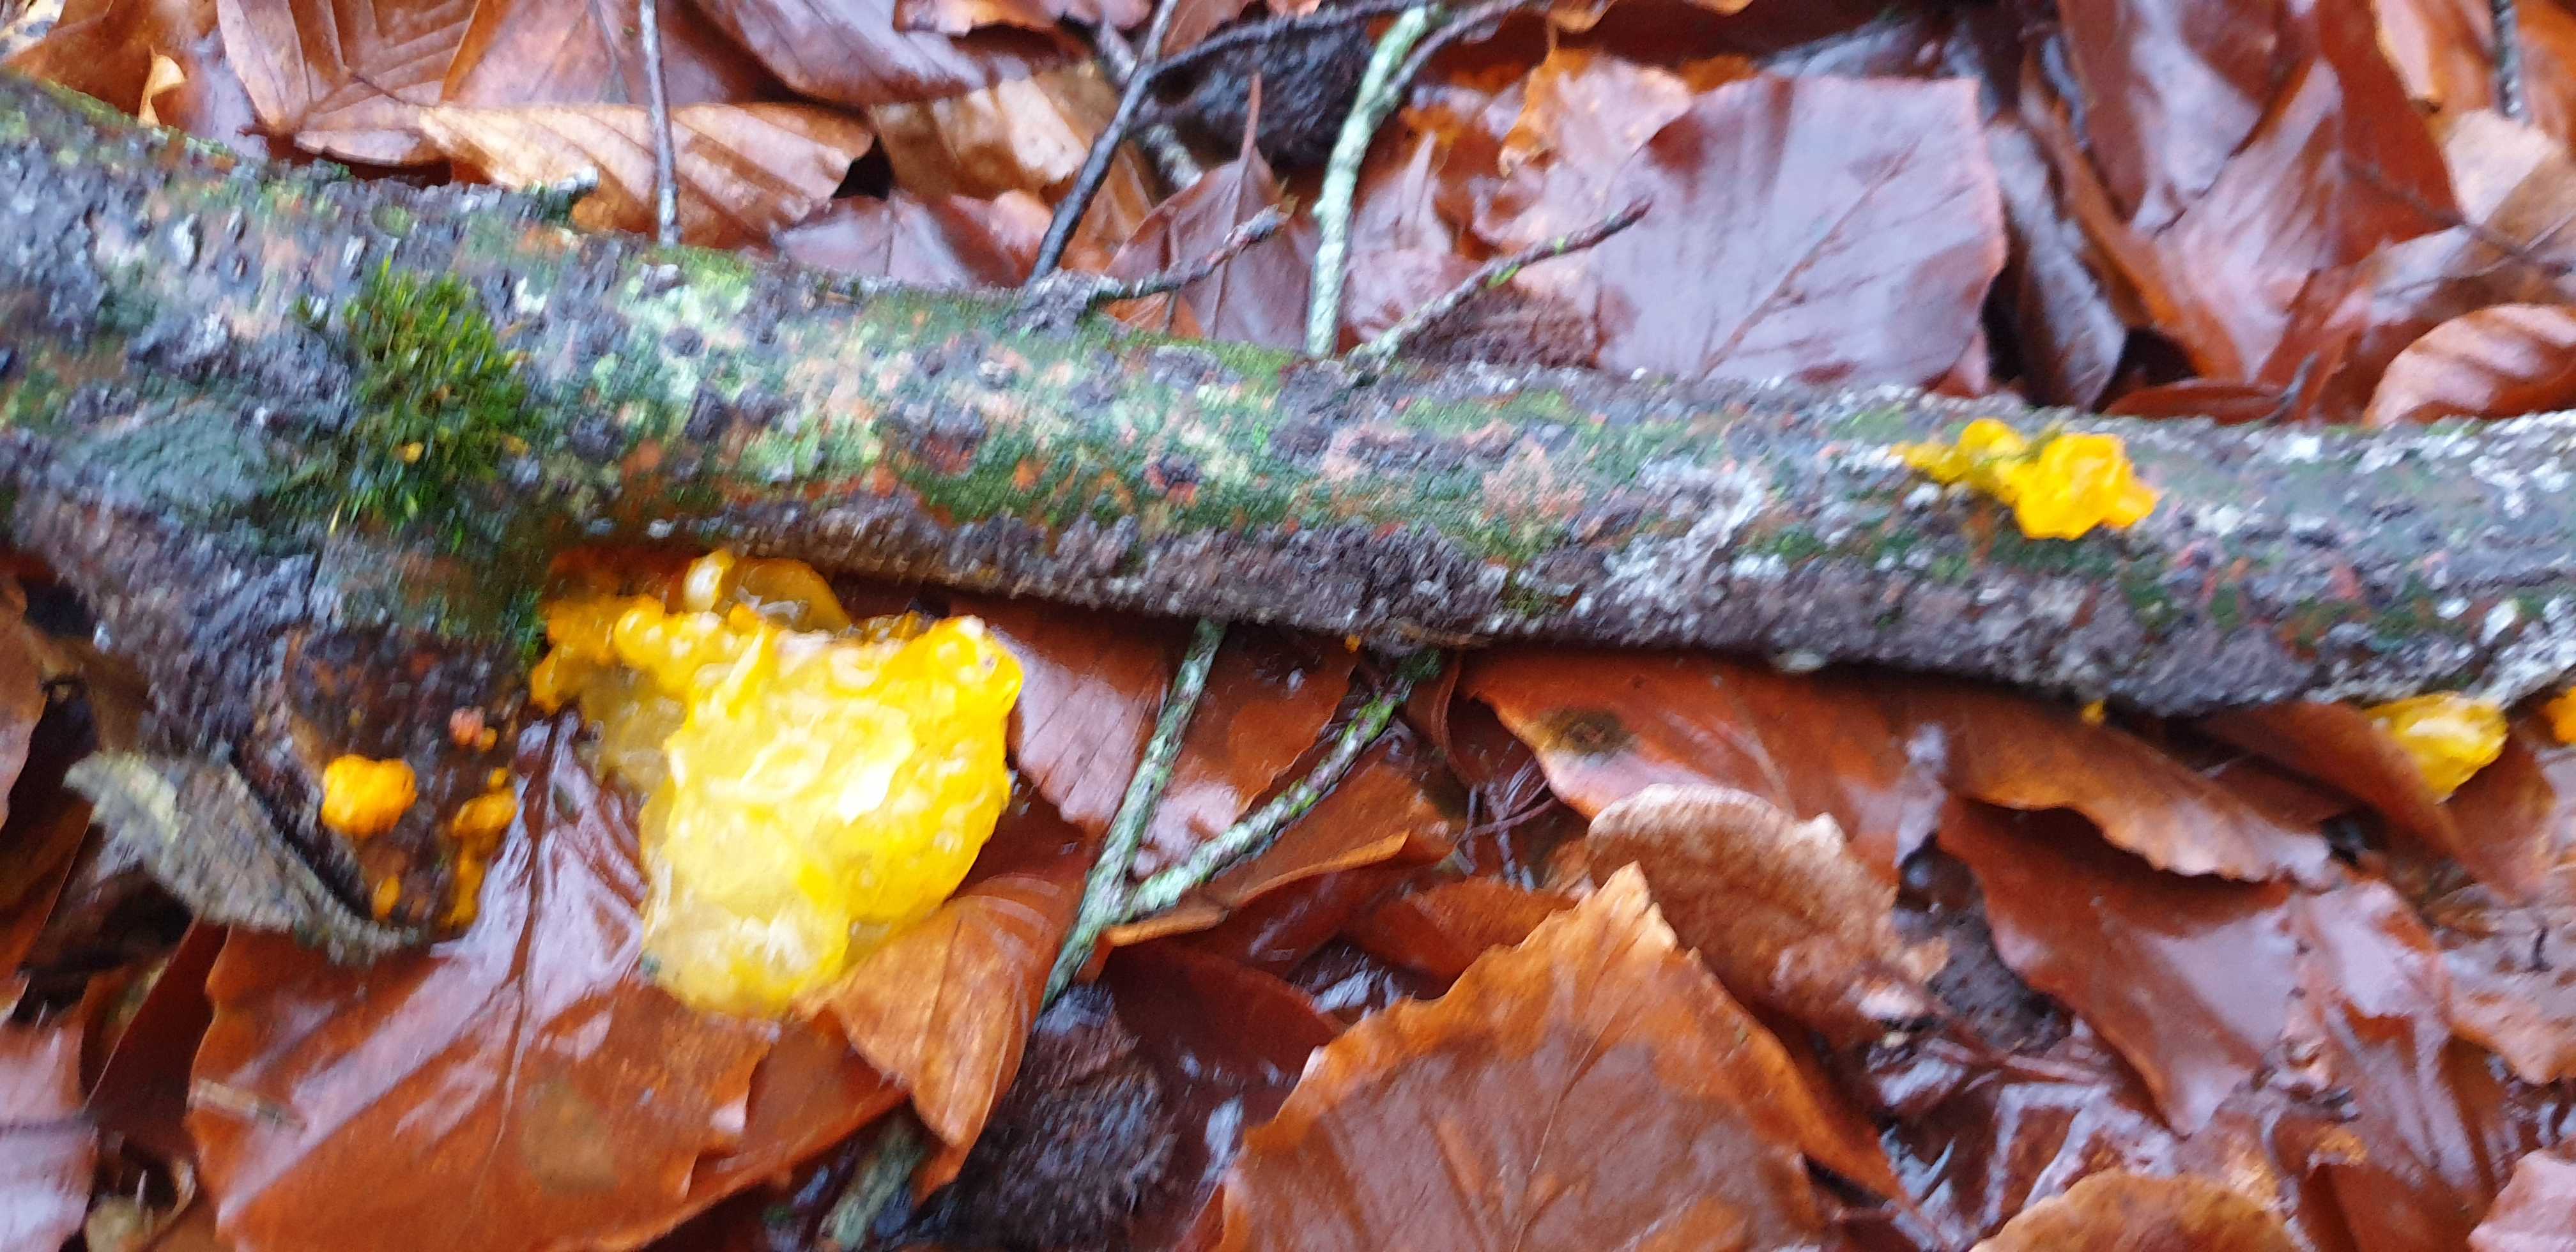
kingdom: Fungi
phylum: Basidiomycota
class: Tremellomycetes
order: Tremellales
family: Tremellaceae
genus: Tremella
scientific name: Tremella mesenterica
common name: gul bævresvamp
